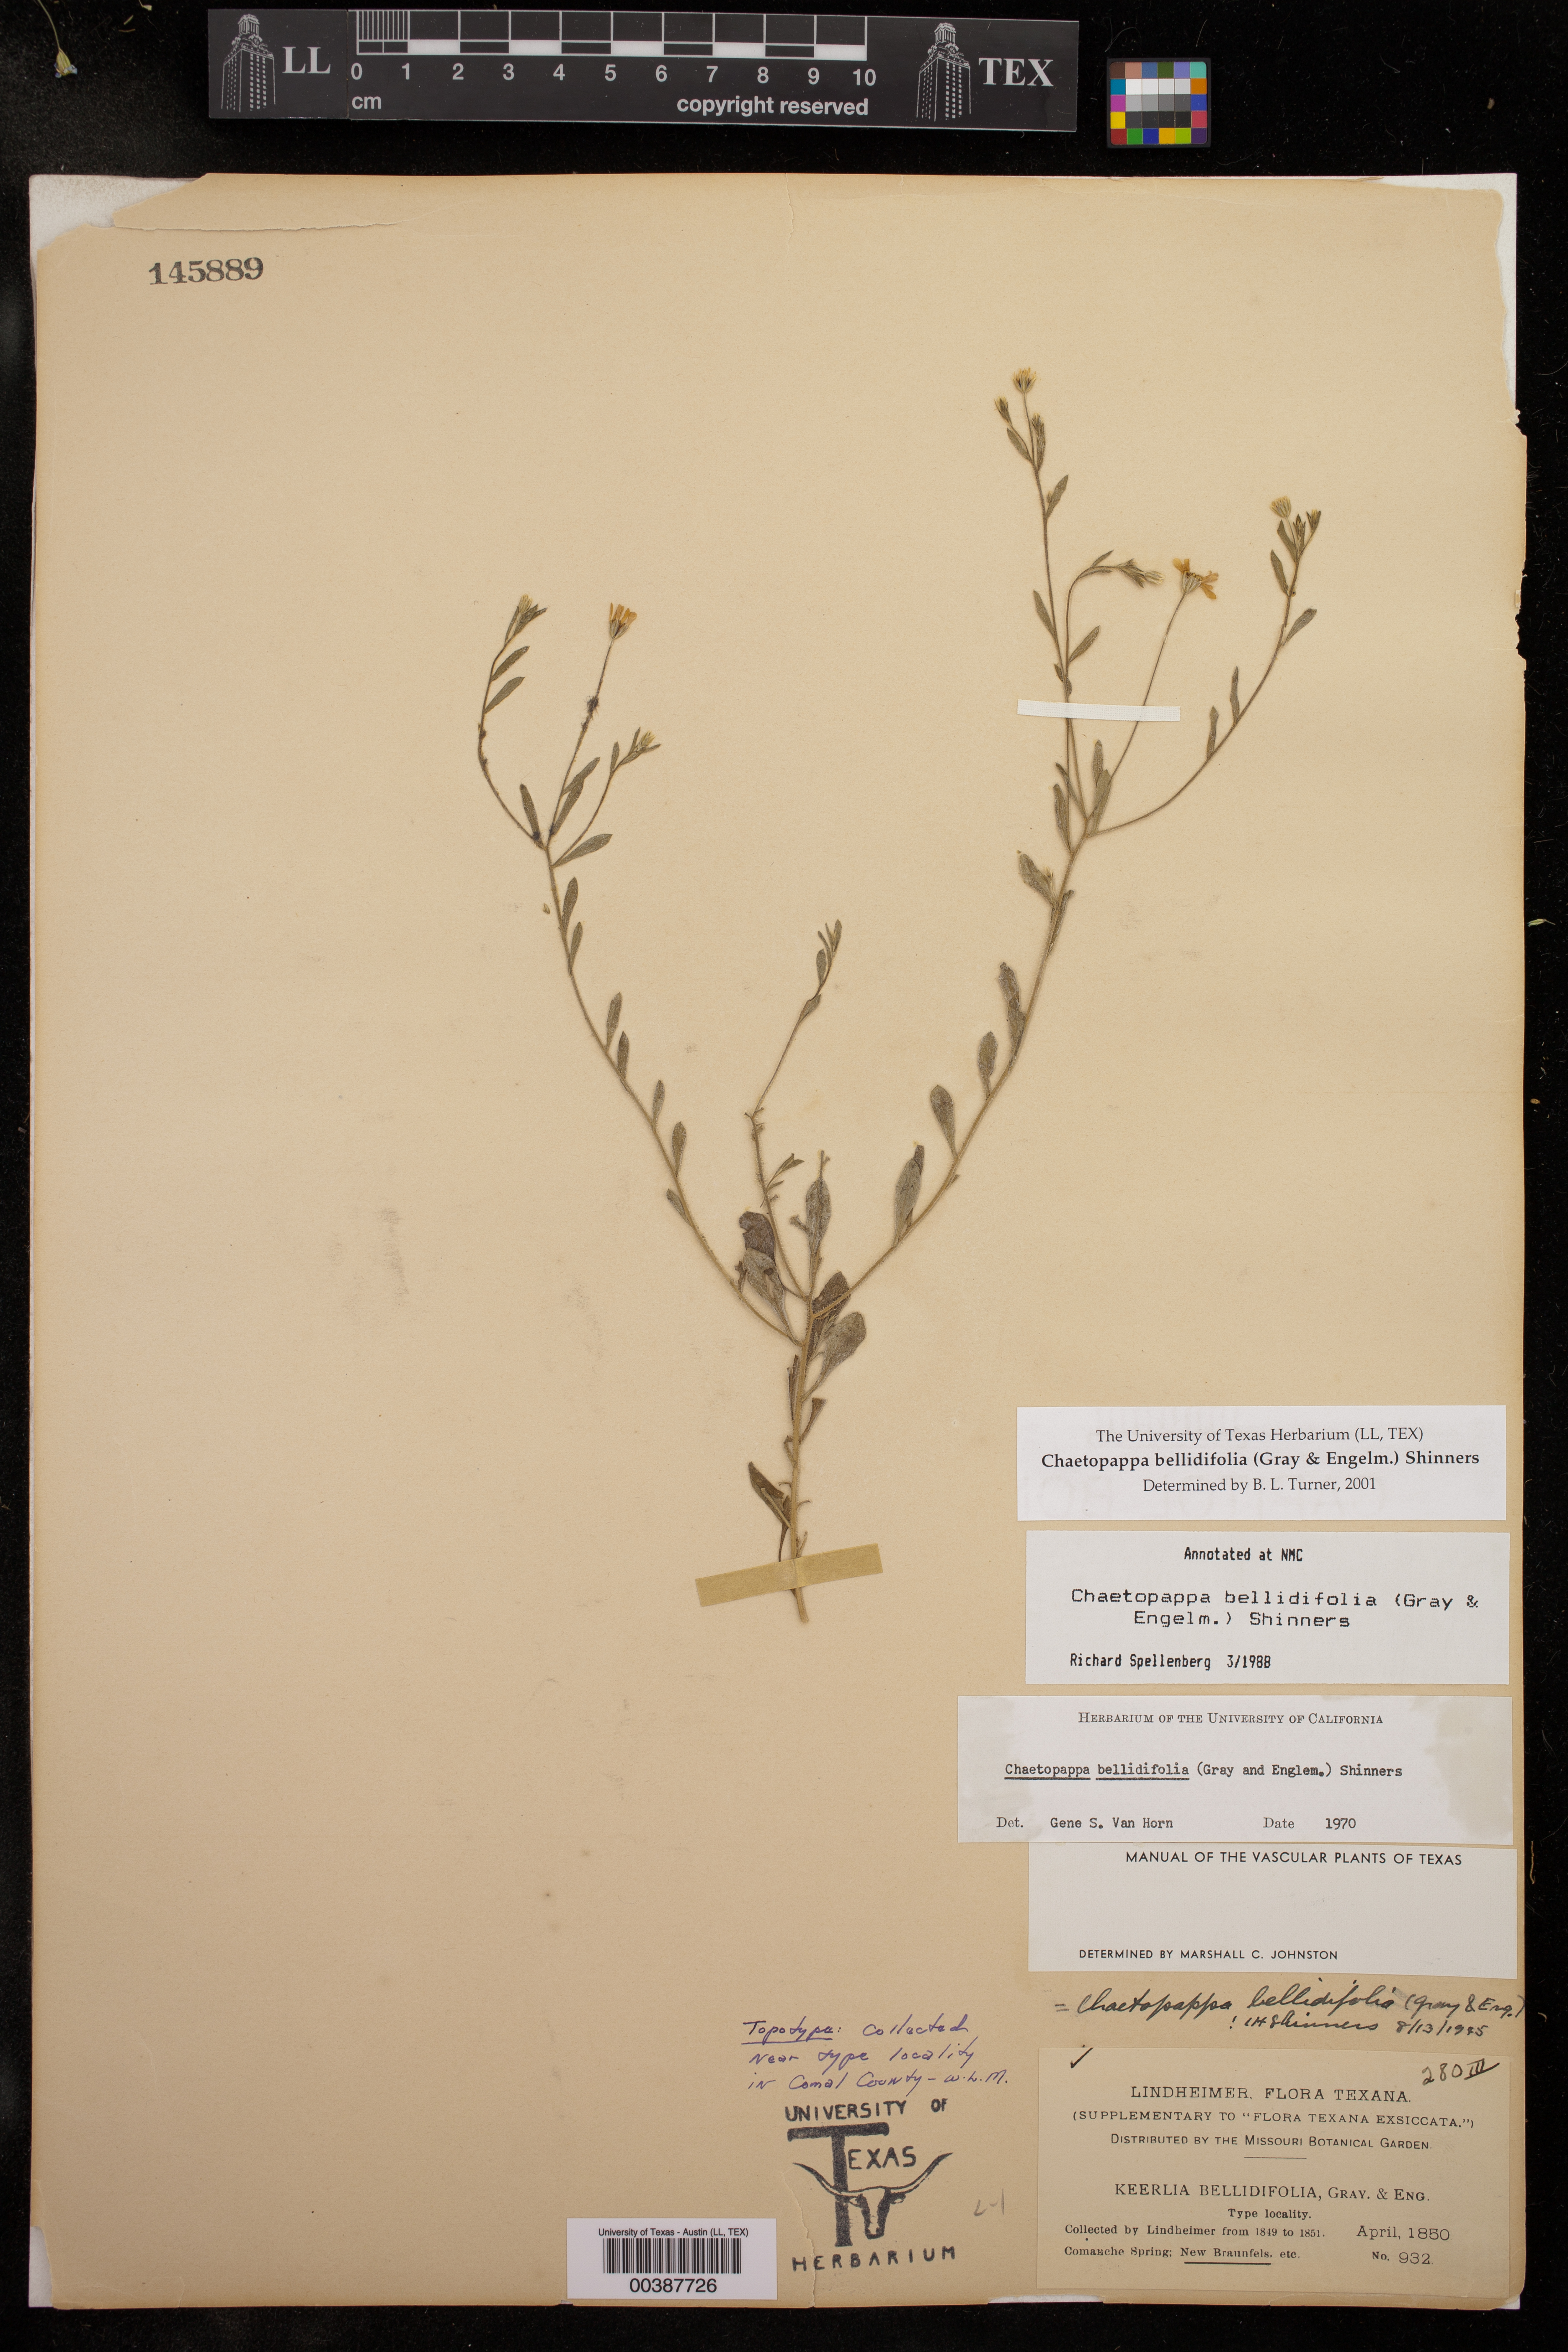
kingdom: Plantae
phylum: Tracheophyta
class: Magnoliopsida
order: Asterales
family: Asteraceae
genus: Chaetopappa
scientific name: Chaetopappa bellidifolia
